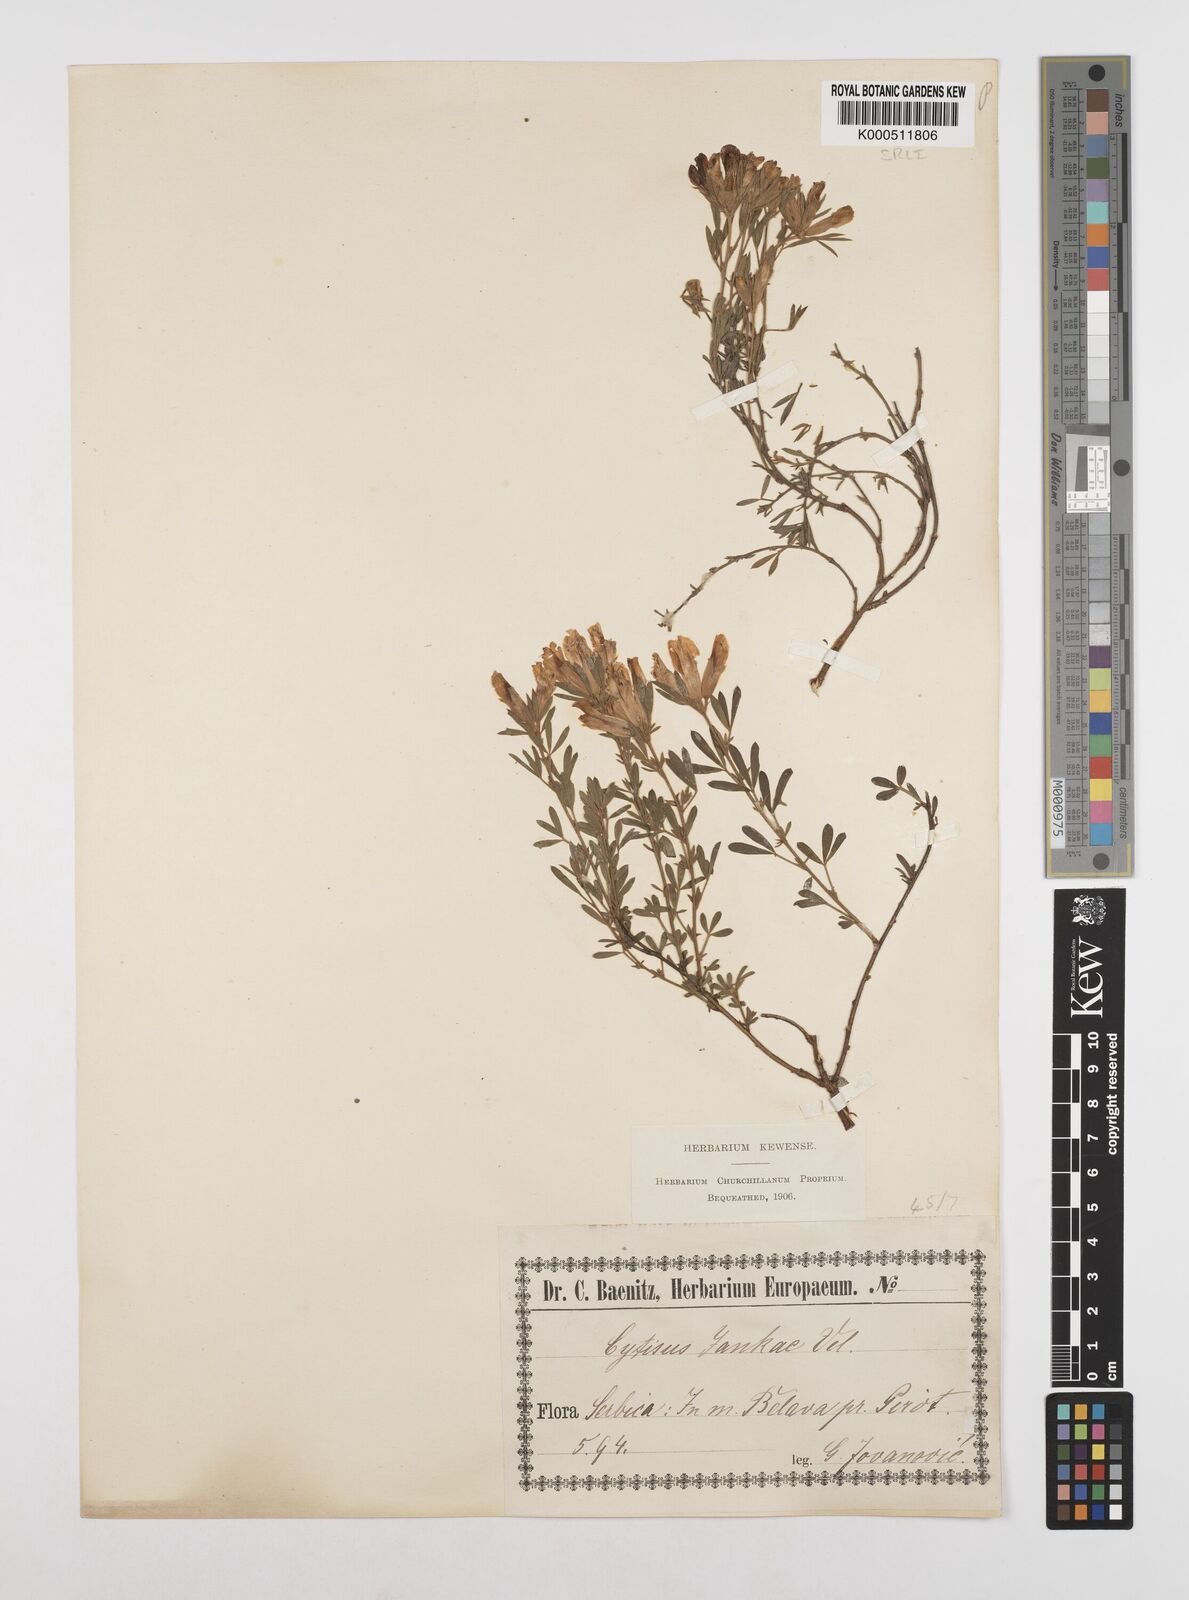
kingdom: Plantae
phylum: Tracheophyta
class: Magnoliopsida
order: Fabales
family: Fabaceae
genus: Chamaecytisus
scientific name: Chamaecytisus jankae
